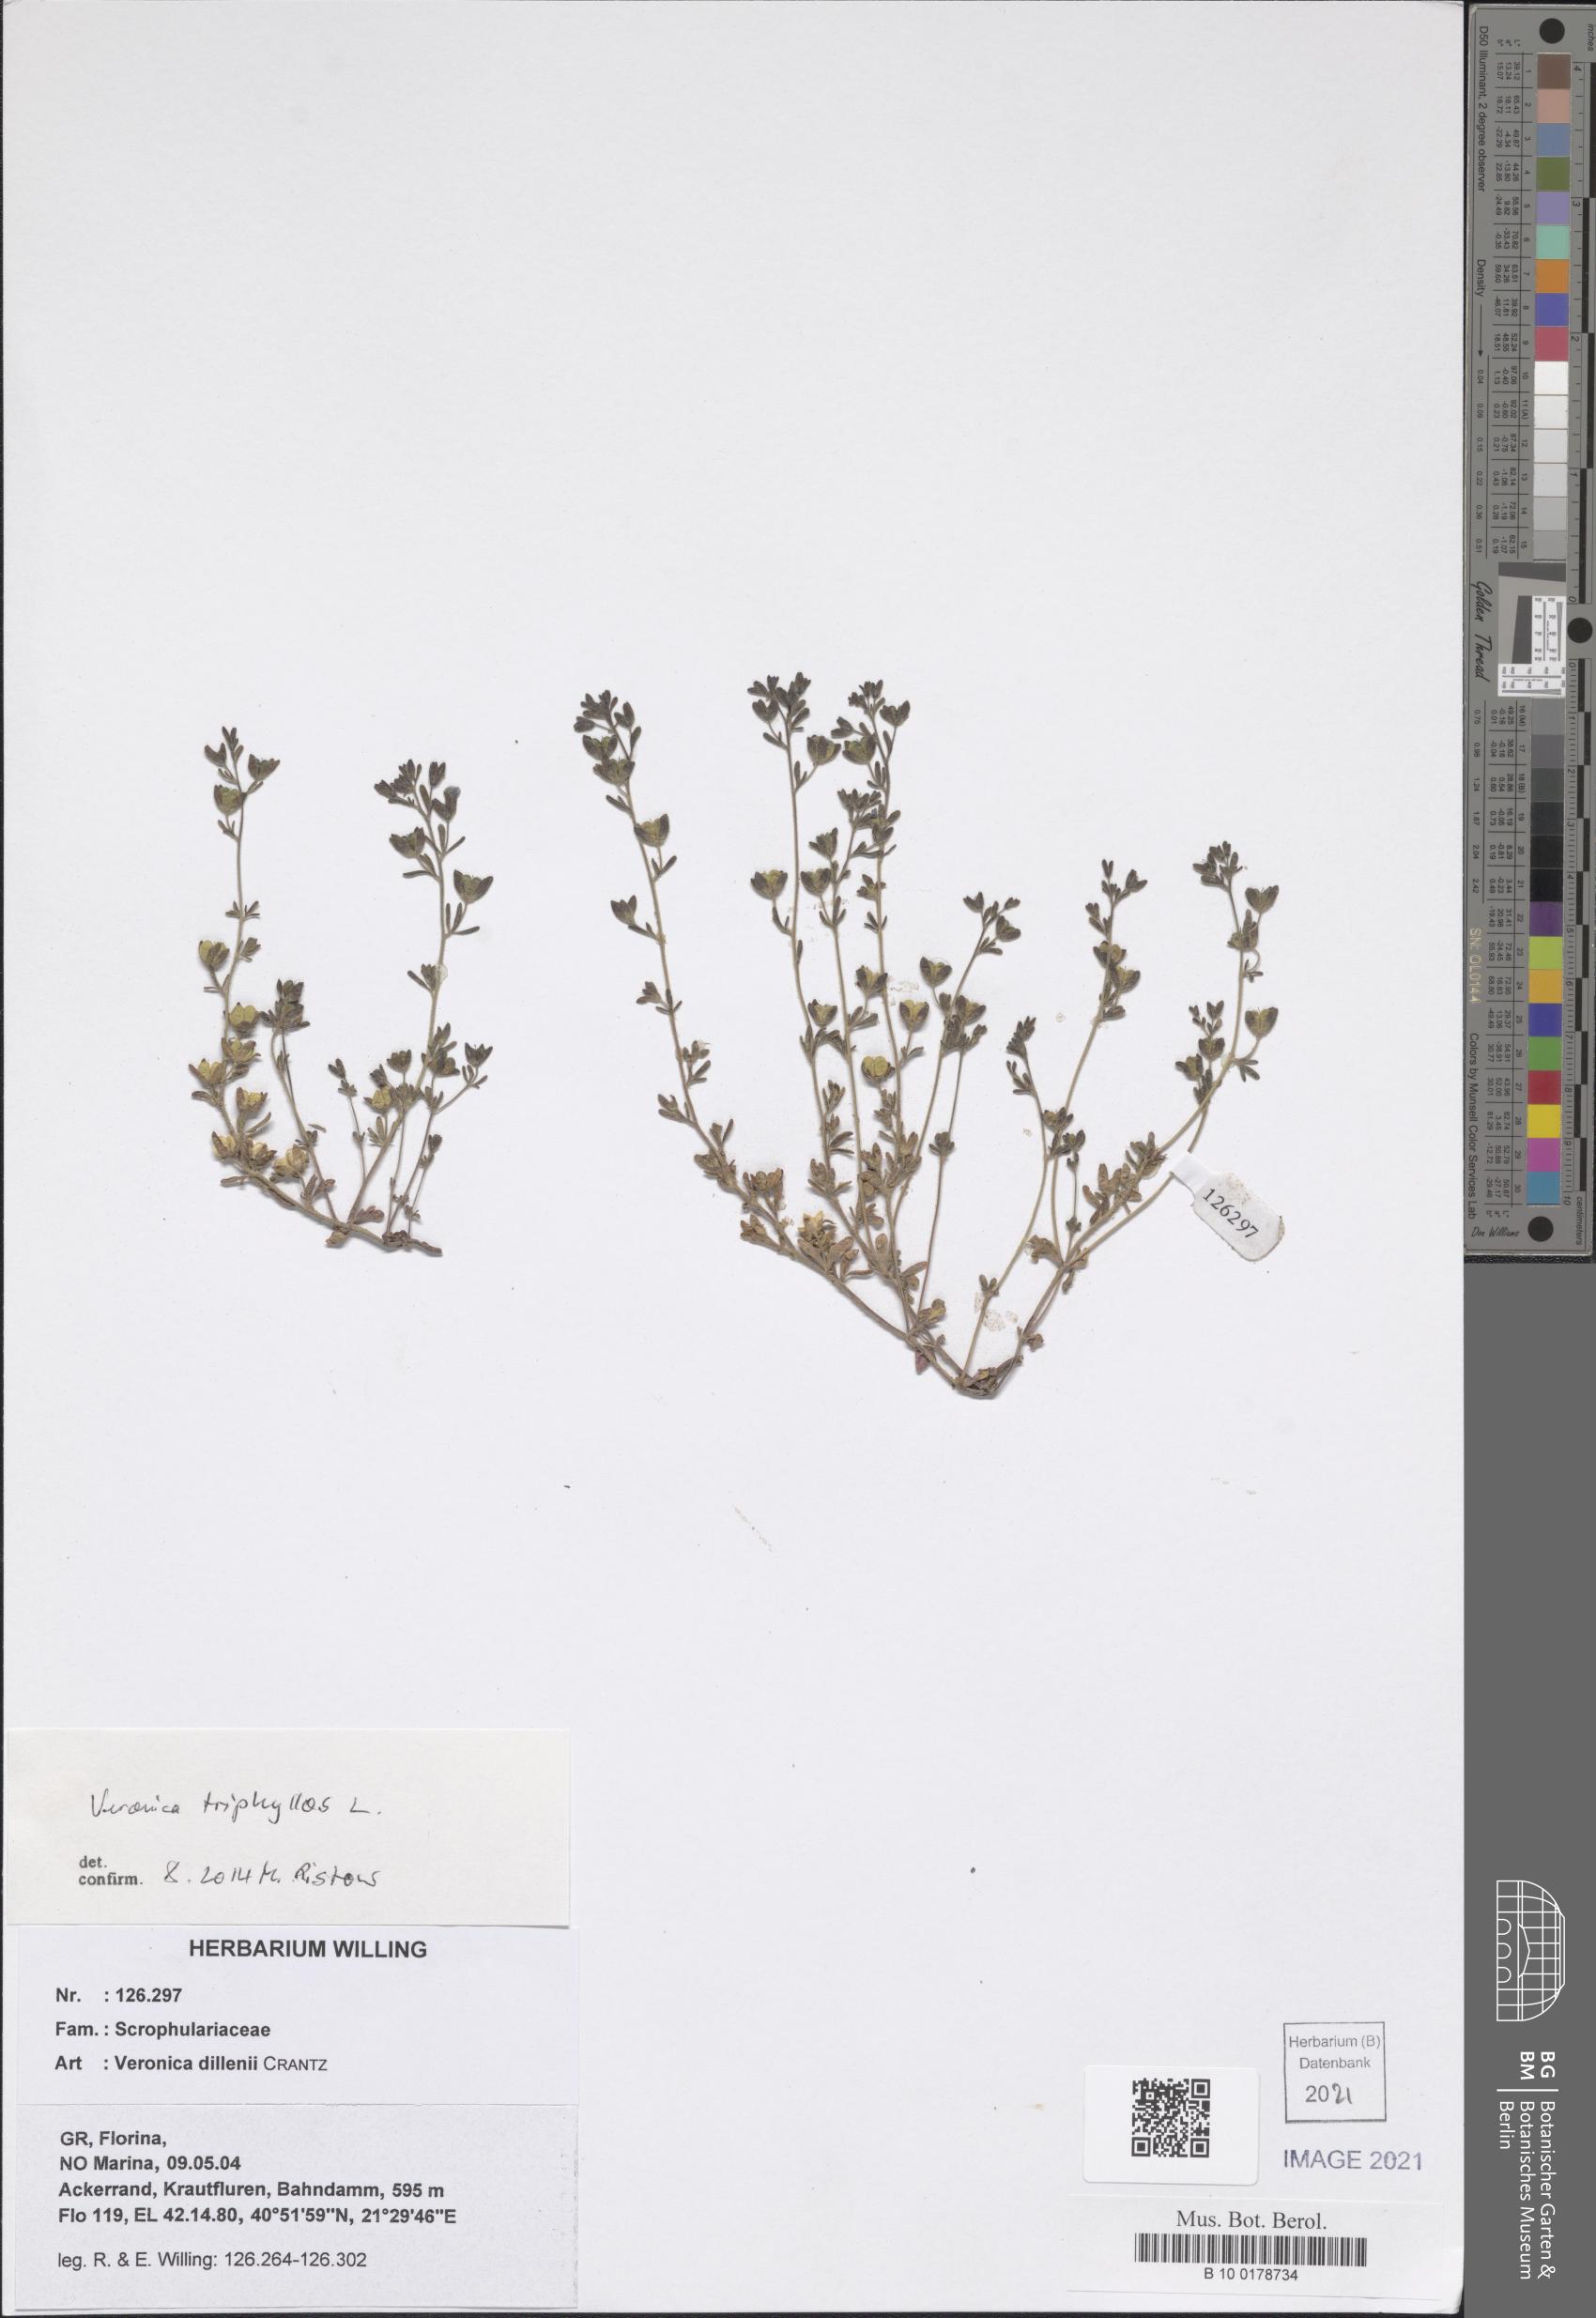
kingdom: Plantae
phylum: Tracheophyta
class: Magnoliopsida
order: Lamiales
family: Plantaginaceae
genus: Veronica
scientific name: Veronica triphyllos
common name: Fingered speedwell
